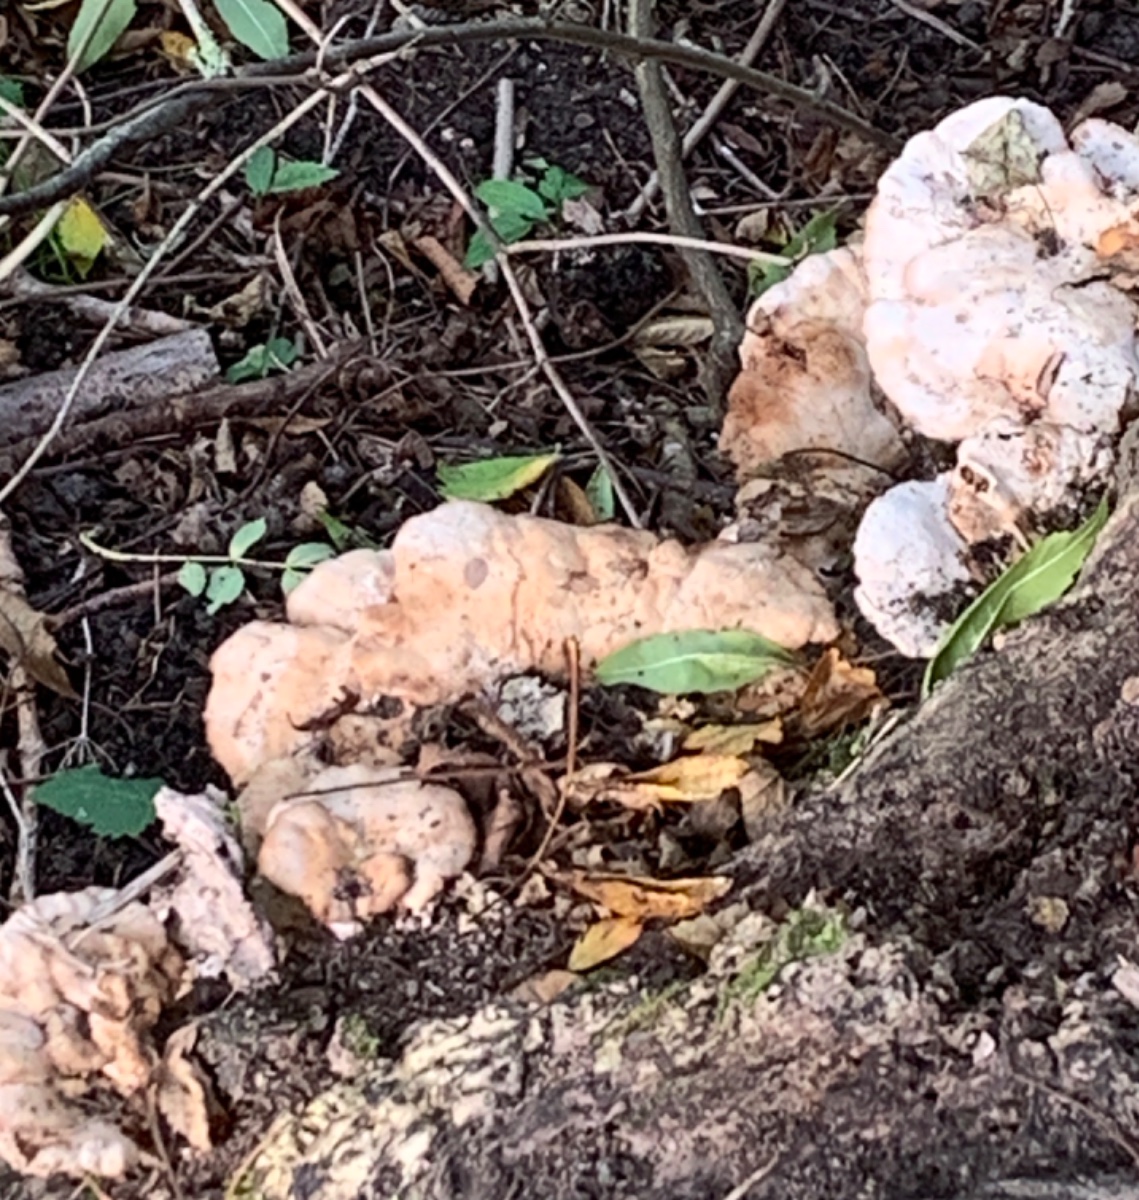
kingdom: Fungi
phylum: Basidiomycota
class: Agaricomycetes
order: Polyporales
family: Podoscyphaceae
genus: Abortiporus
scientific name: Abortiporus biennis
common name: rødmende pjalteporesvamp
